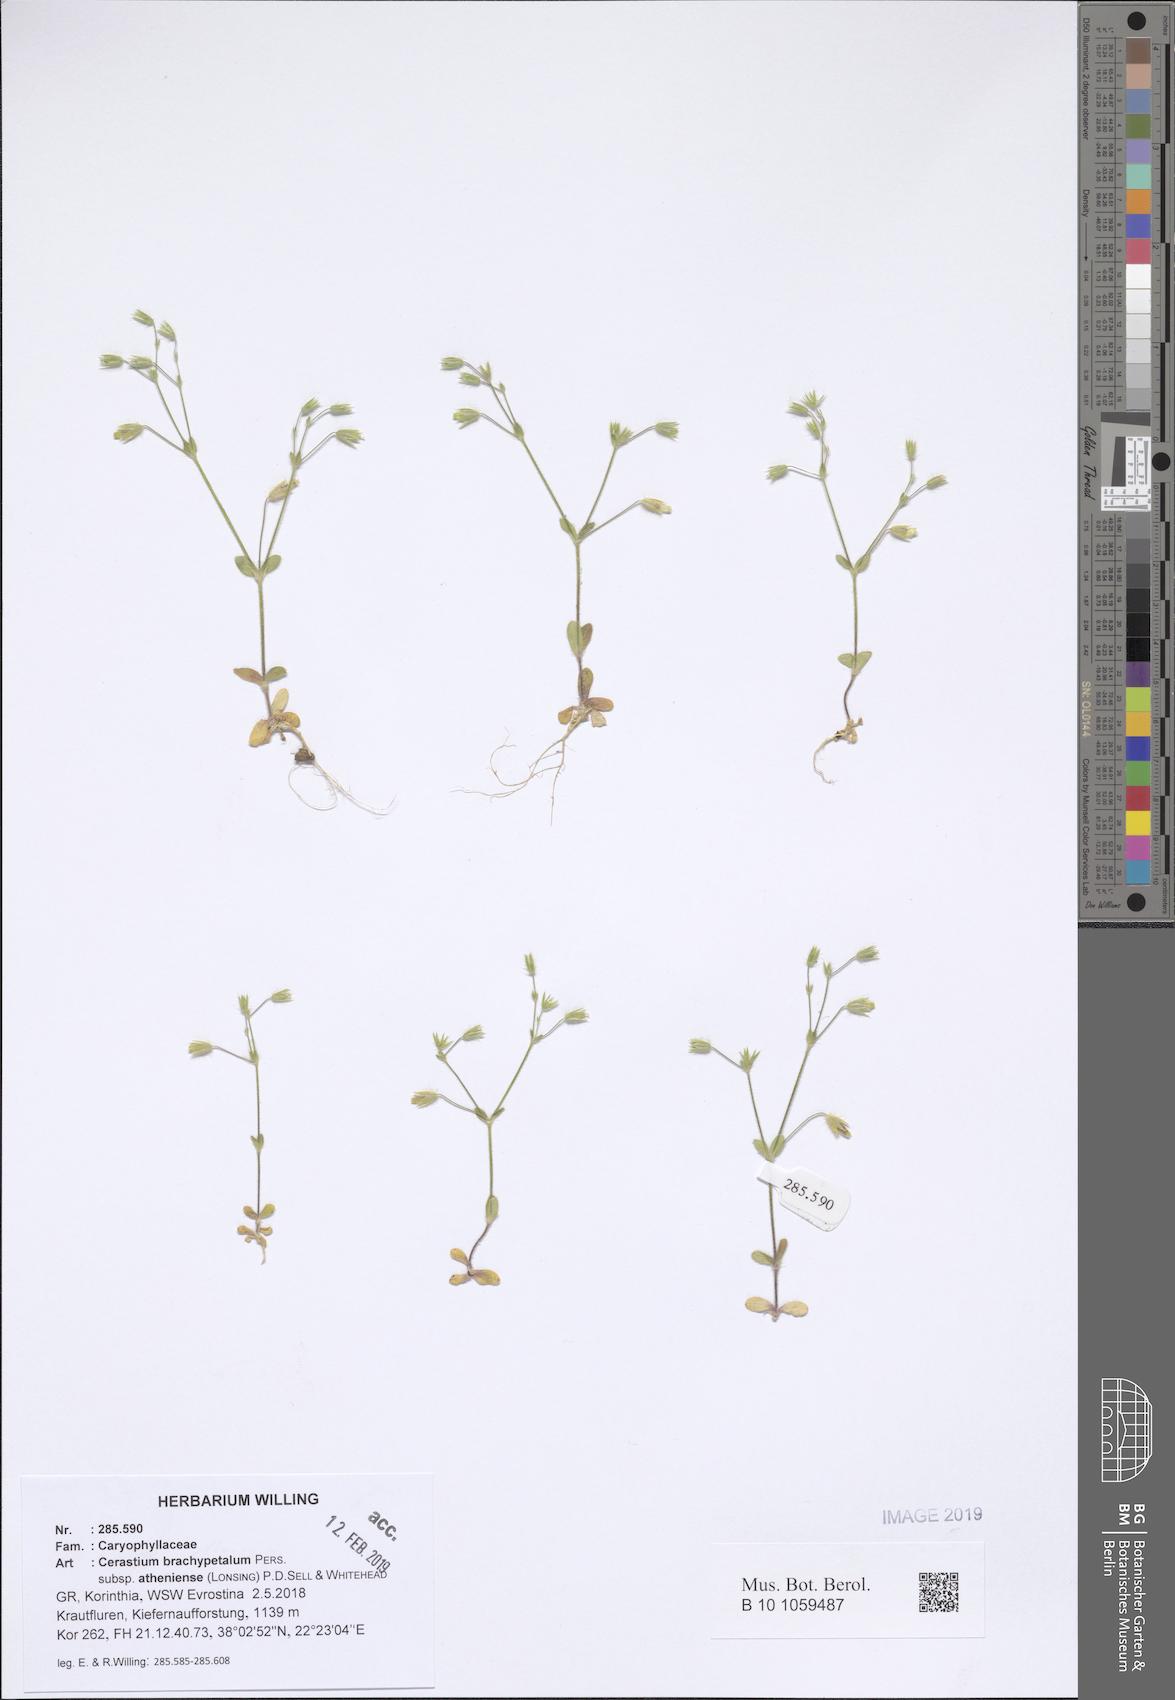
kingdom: Plantae
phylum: Tracheophyta
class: Magnoliopsida
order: Caryophyllales
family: Caryophyllaceae
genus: Cerastium
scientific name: Cerastium brachypetalum
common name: Grey mouse-ear
